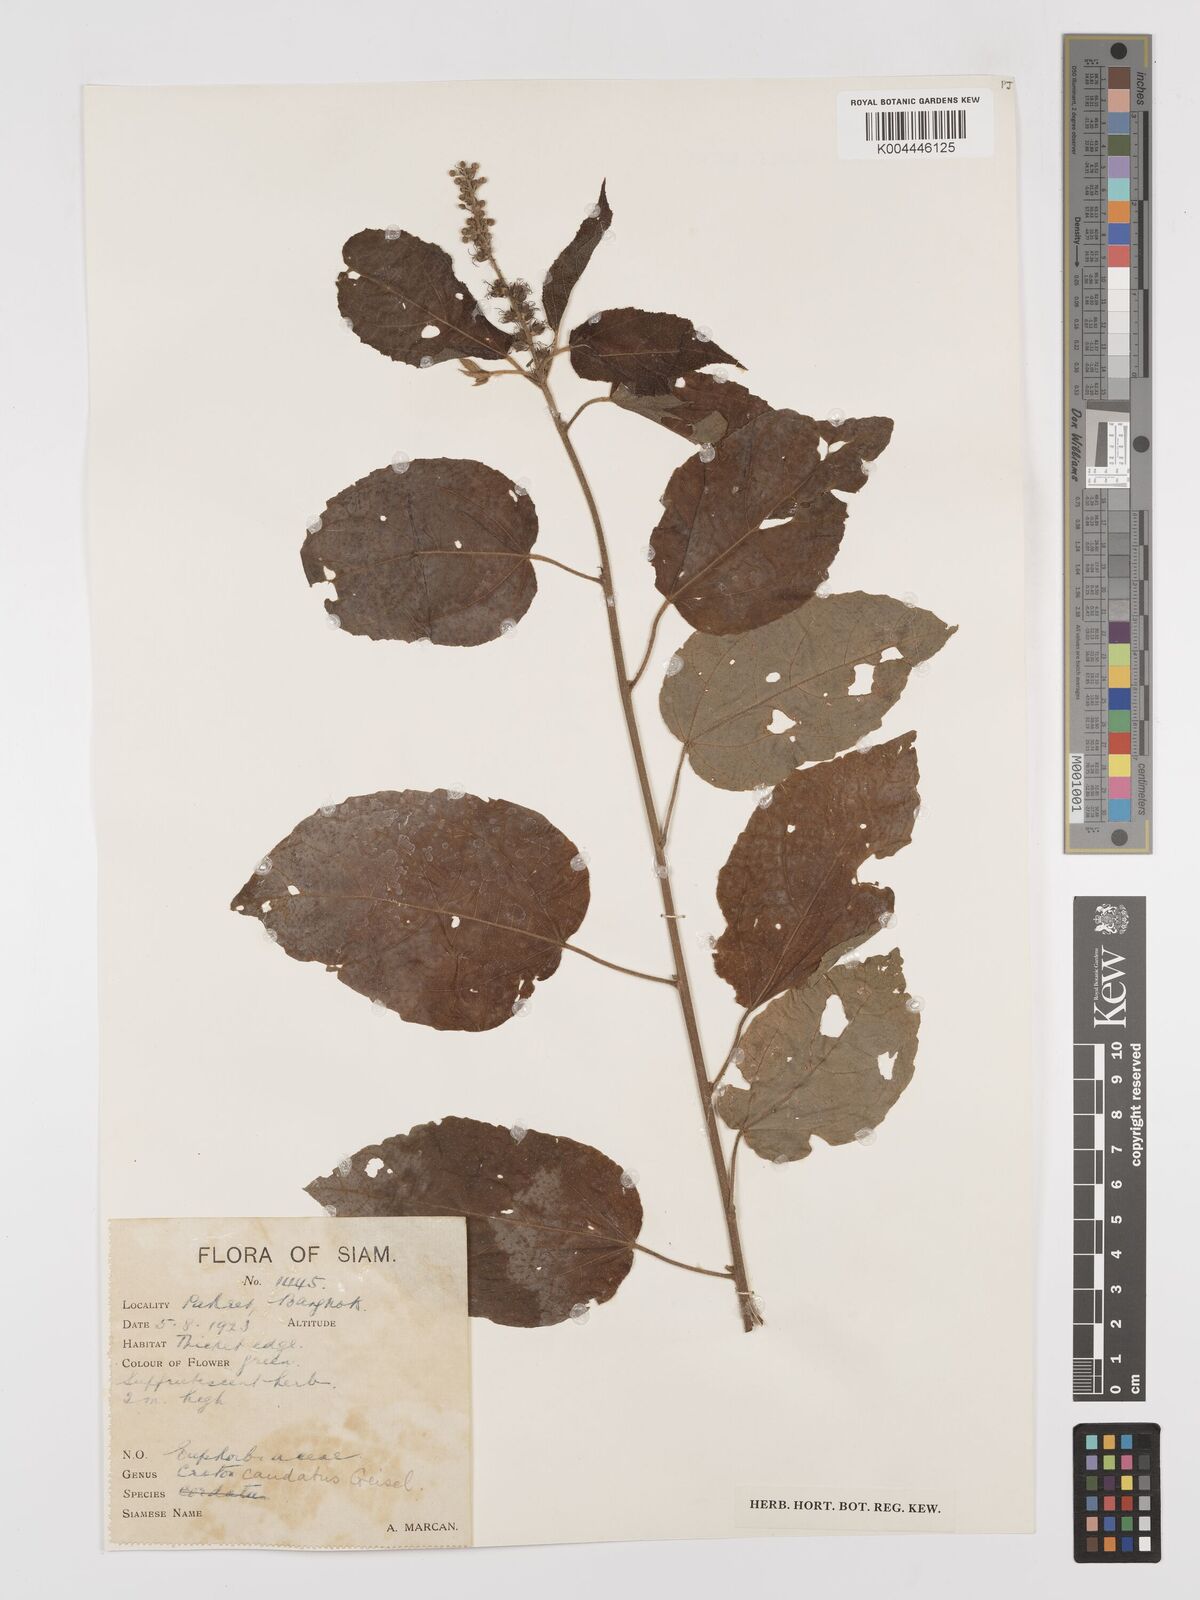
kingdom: Plantae
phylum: Tracheophyta
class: Magnoliopsida
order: Malpighiales
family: Euphorbiaceae
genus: Croton
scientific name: Croton caudatus
